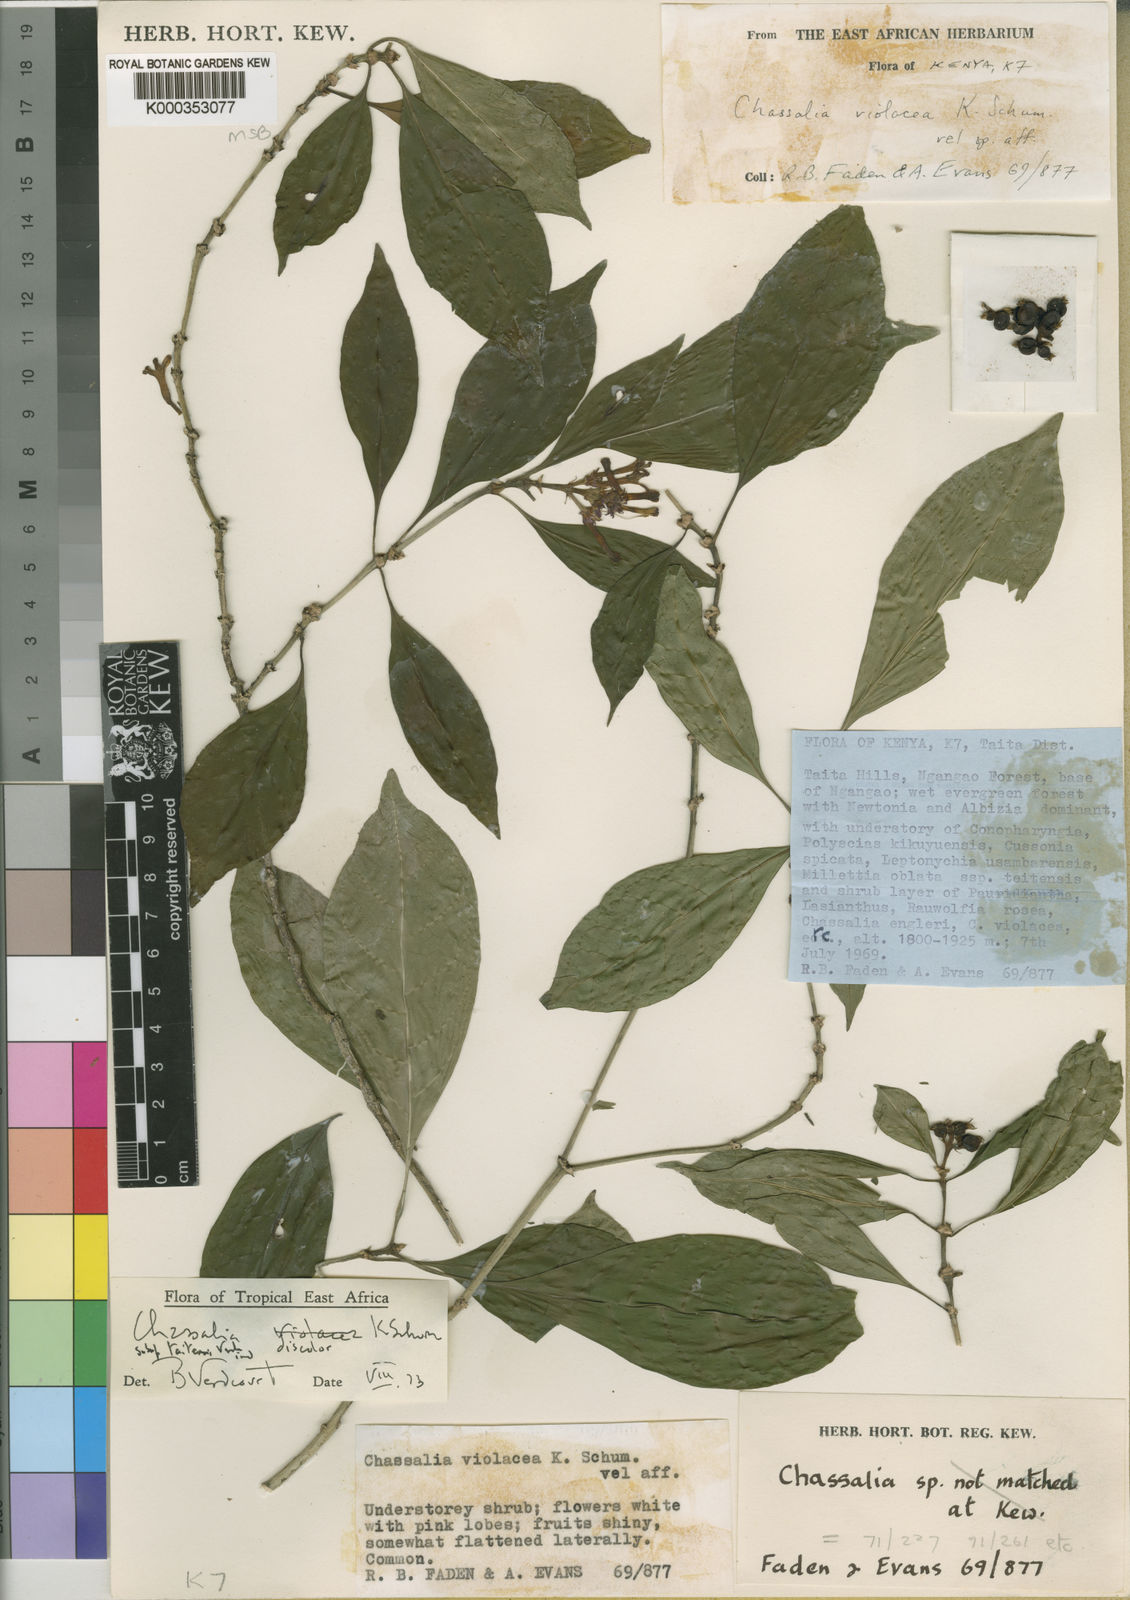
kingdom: Plantae
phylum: Tracheophyta
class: Magnoliopsida
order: Gentianales
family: Rubiaceae
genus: Chassalia
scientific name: Chassalia discolor
